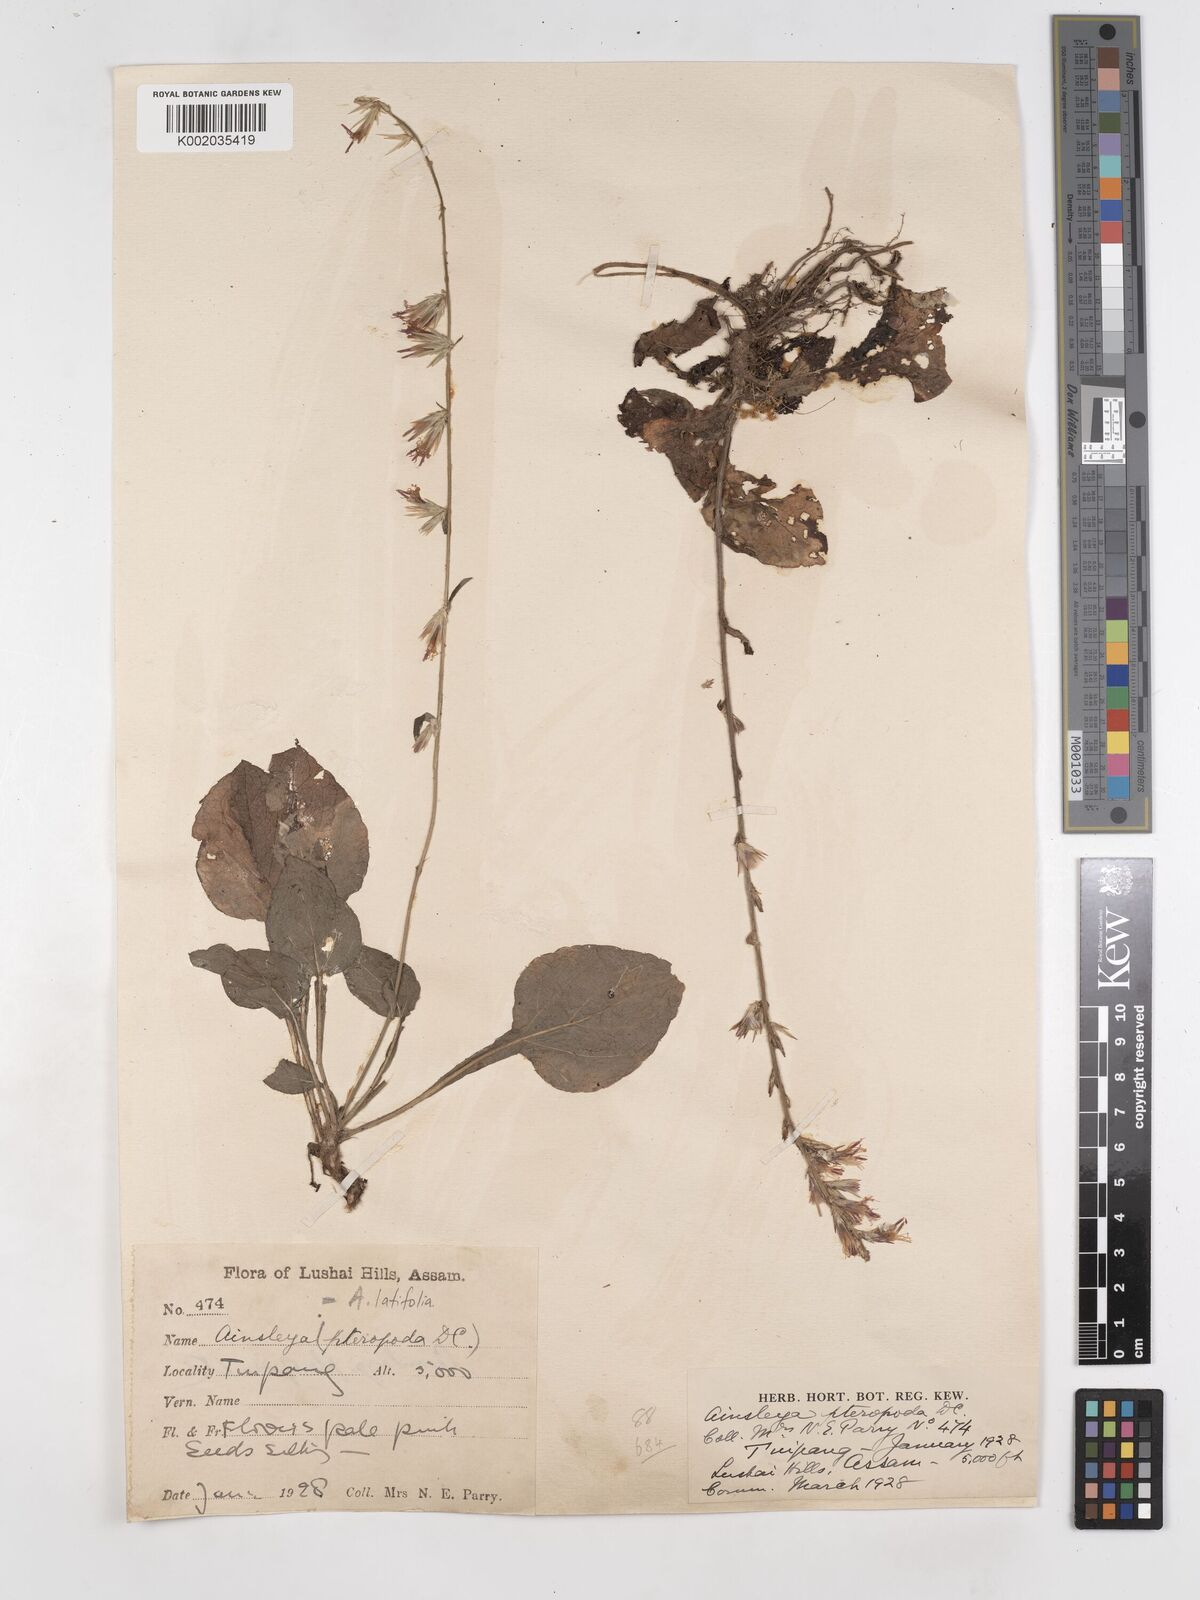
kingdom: Plantae
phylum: Tracheophyta
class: Magnoliopsida
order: Asterales
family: Asteraceae
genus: Ainsliaea
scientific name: Ainsliaea latifolia
